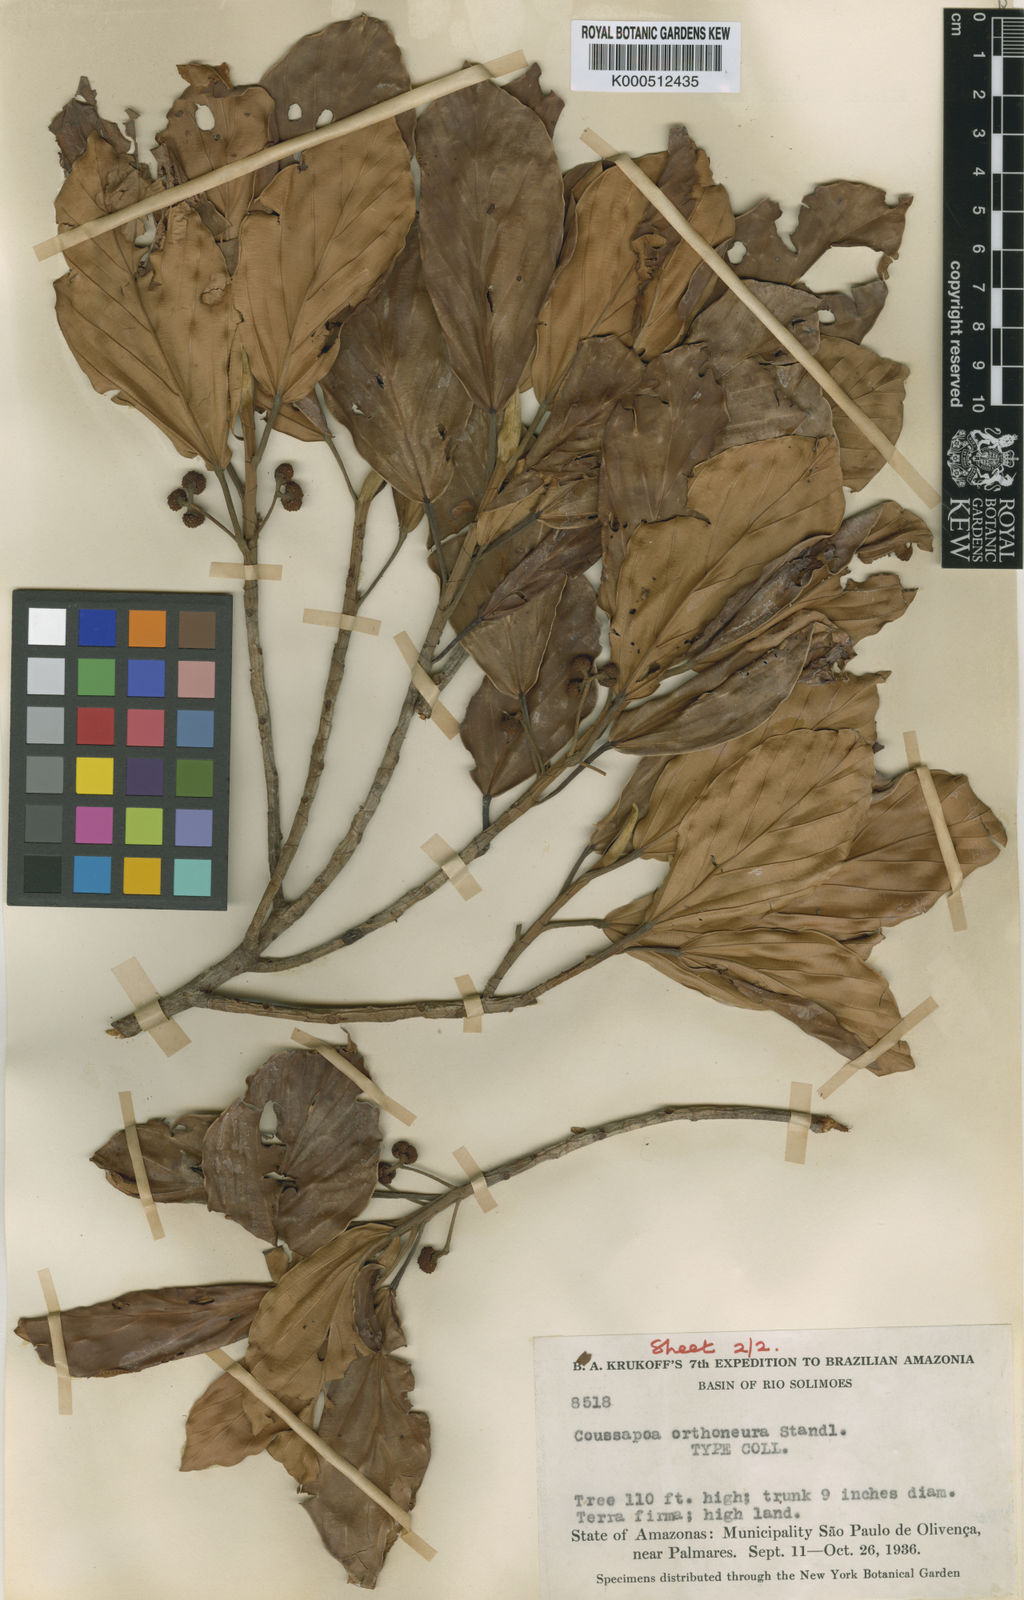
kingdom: Plantae
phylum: Tracheophyta
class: Magnoliopsida
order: Rosales
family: Urticaceae
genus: Coussapoa
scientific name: Coussapoa orthoneura
